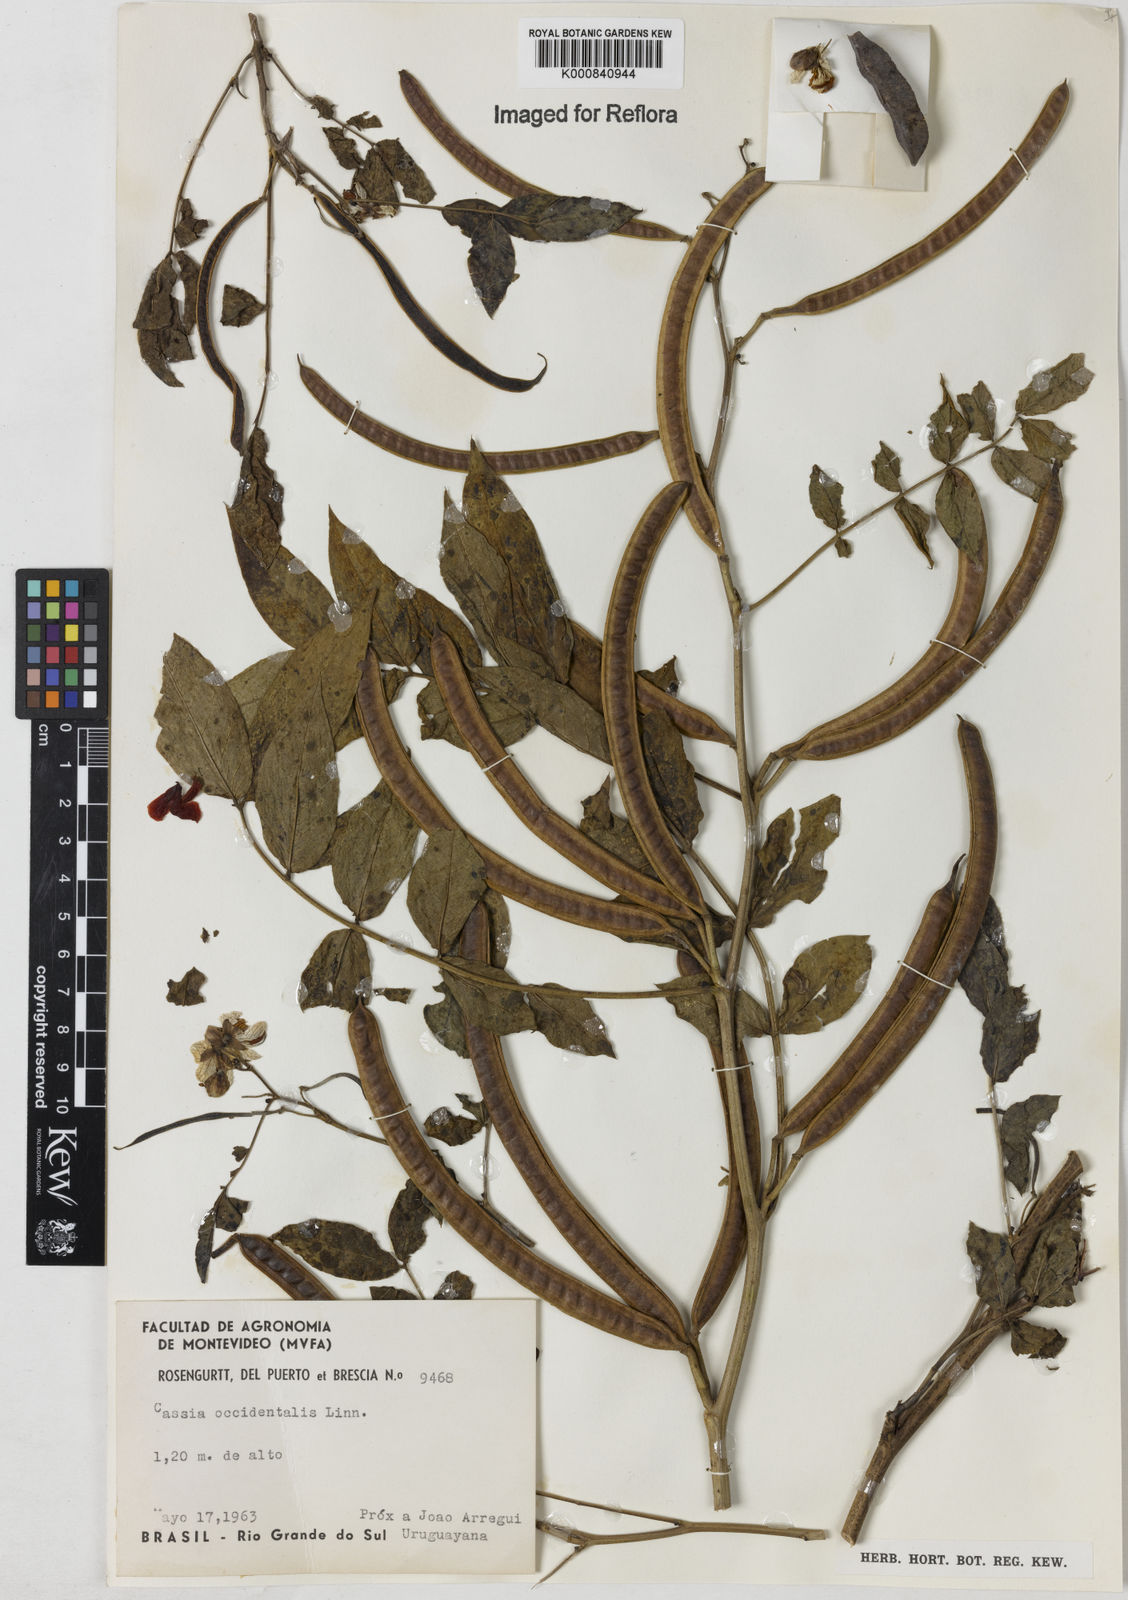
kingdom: Plantae
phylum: Tracheophyta
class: Magnoliopsida
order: Fabales
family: Fabaceae
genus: Senna
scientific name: Senna occidentalis
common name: Septicweed
